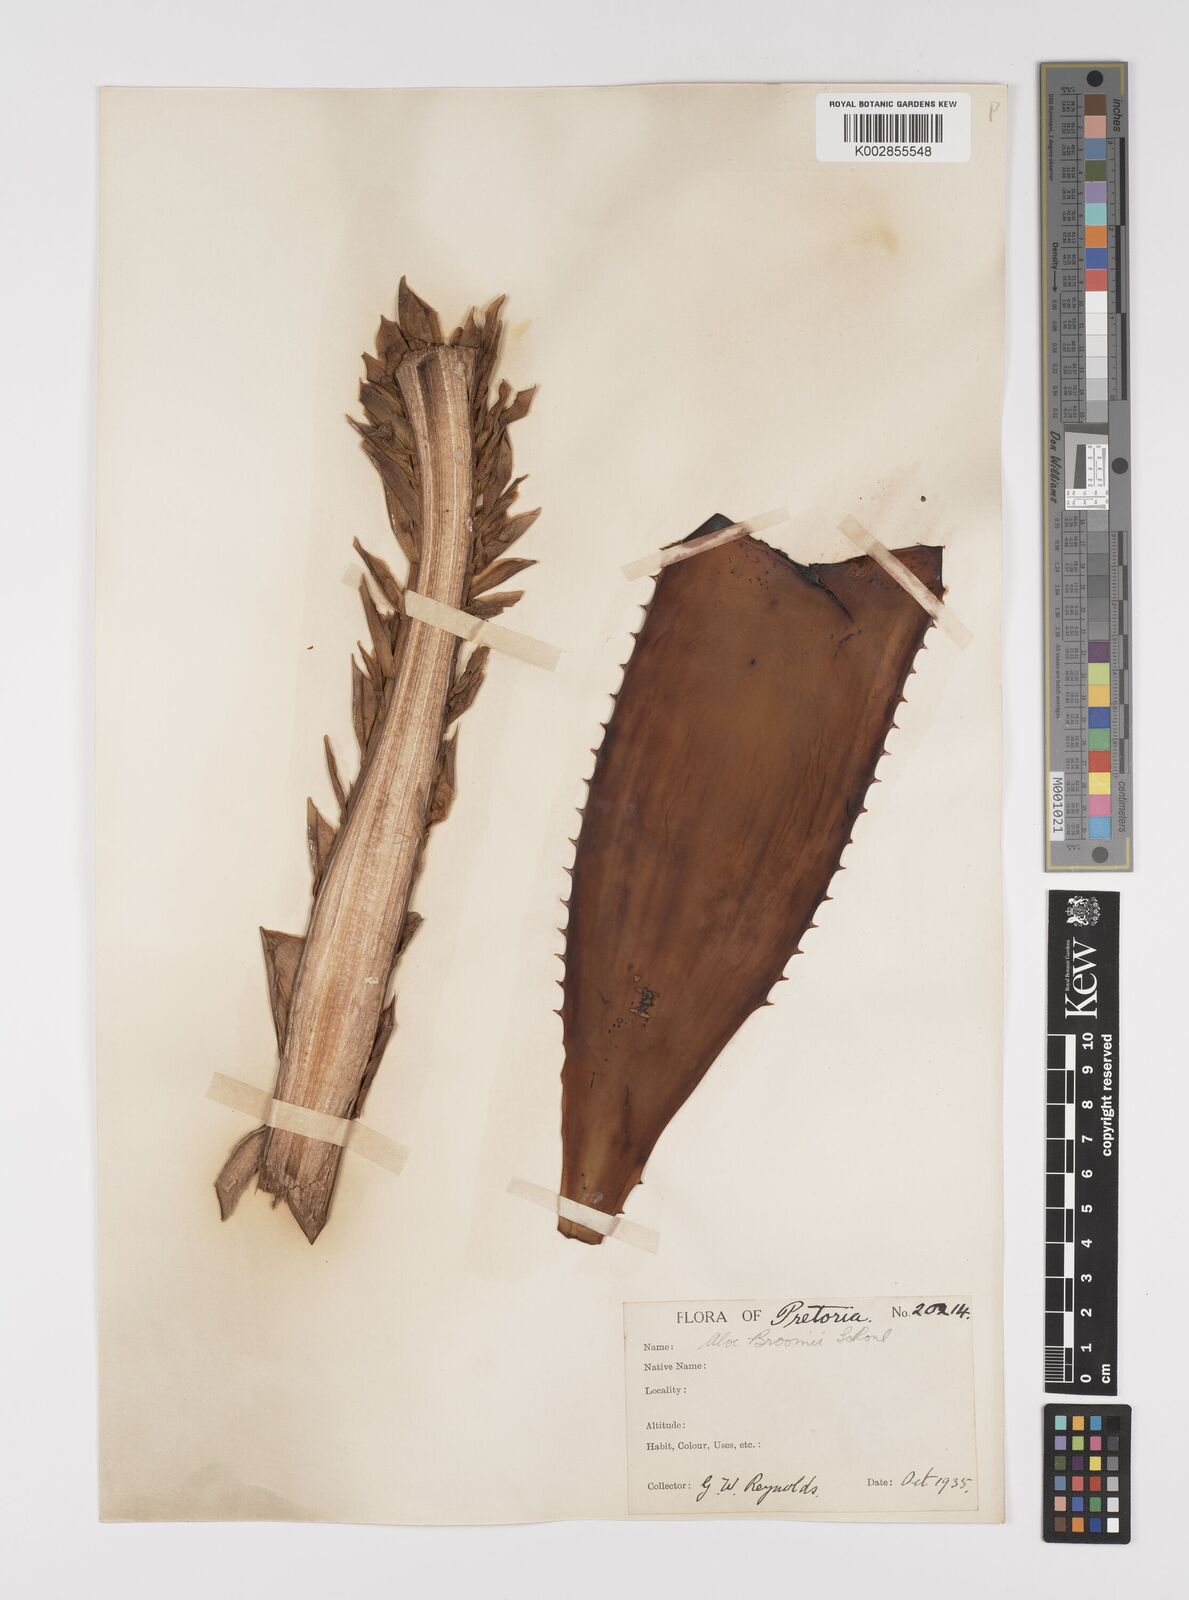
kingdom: Plantae
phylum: Tracheophyta
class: Liliopsida
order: Asparagales
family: Asphodelaceae
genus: Aloe
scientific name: Aloe broomii
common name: Berg alwyn
